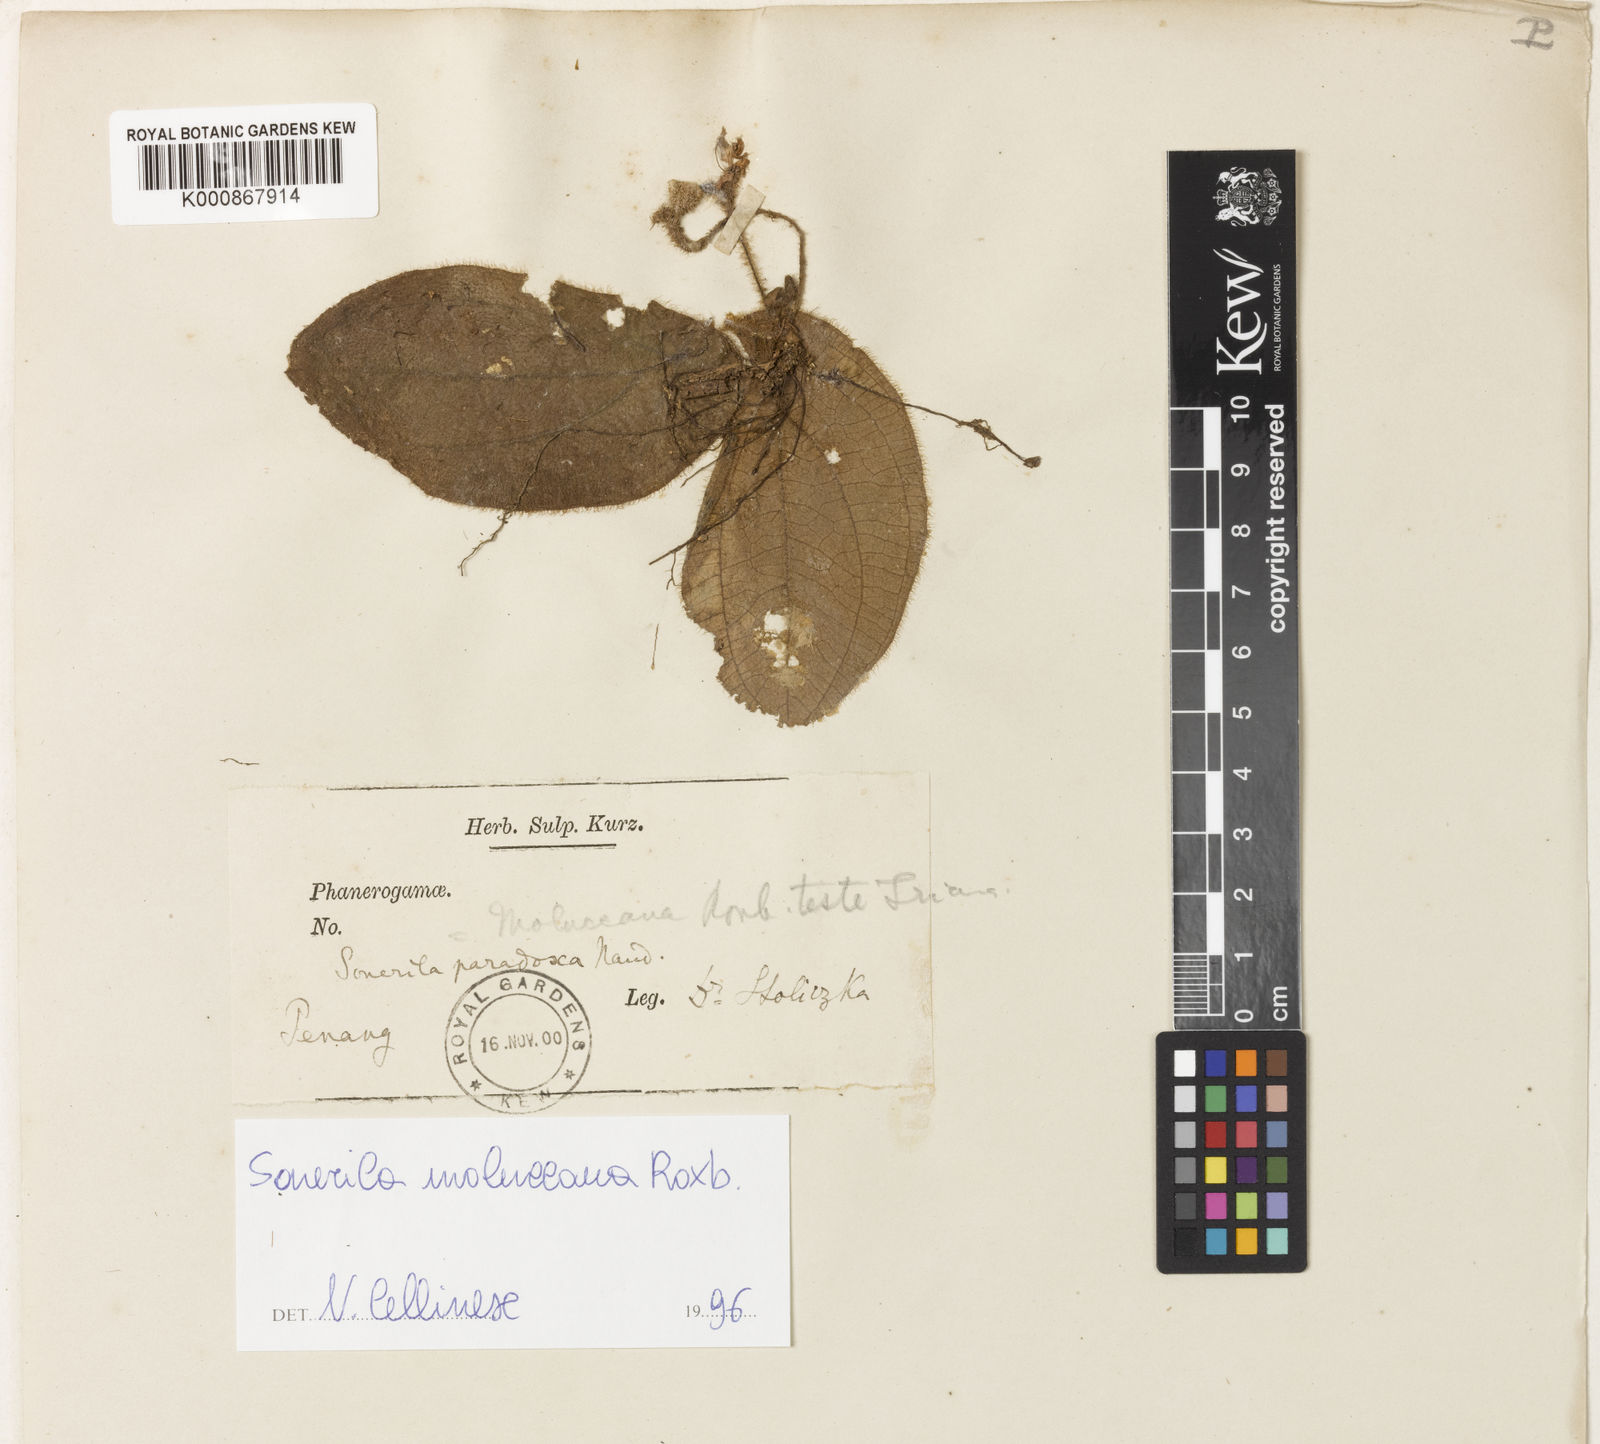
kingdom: Plantae
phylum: Tracheophyta
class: Magnoliopsida
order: Myrtales
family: Melastomataceae
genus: Sonerila
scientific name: Sonerila moluccana
